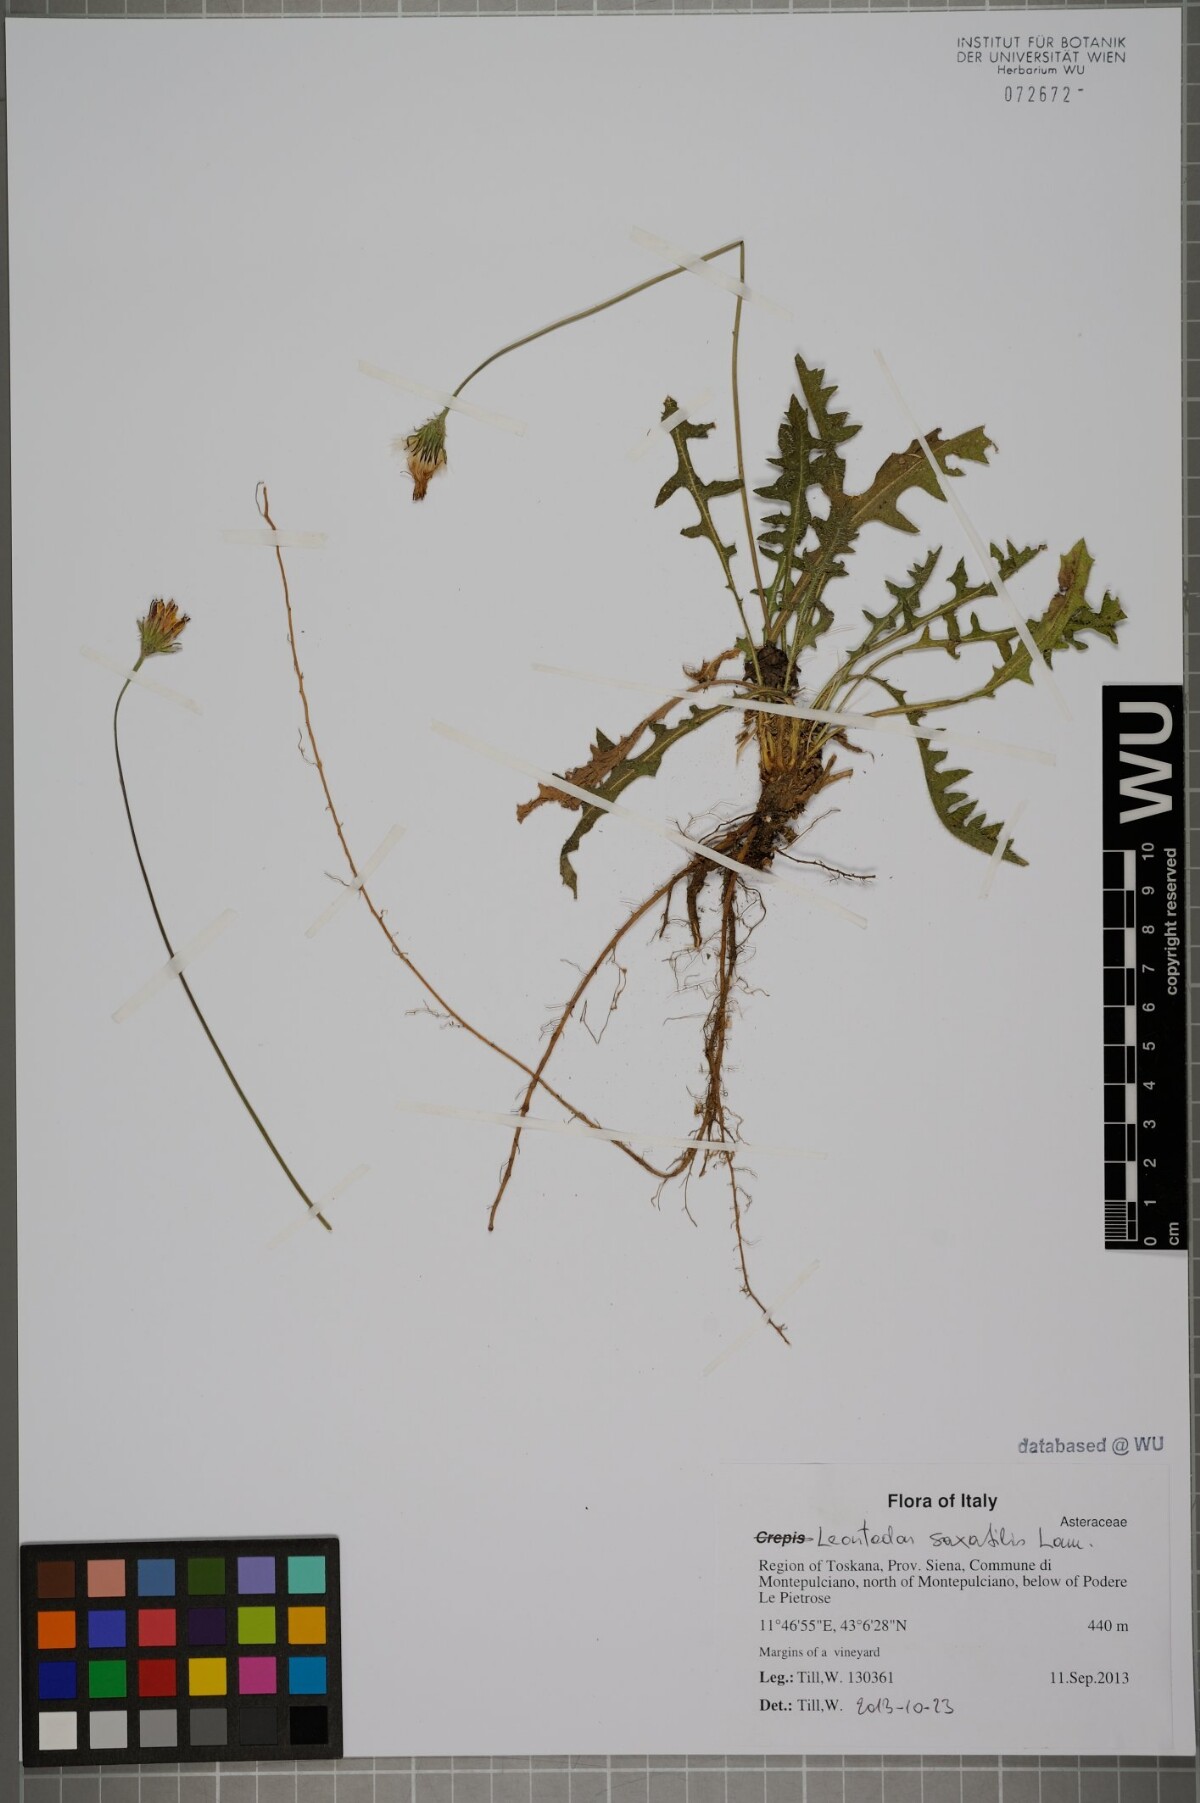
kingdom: Plantae
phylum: Tracheophyta
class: Magnoliopsida
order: Asterales
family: Asteraceae
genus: Thrincia
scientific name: Thrincia saxatilis
